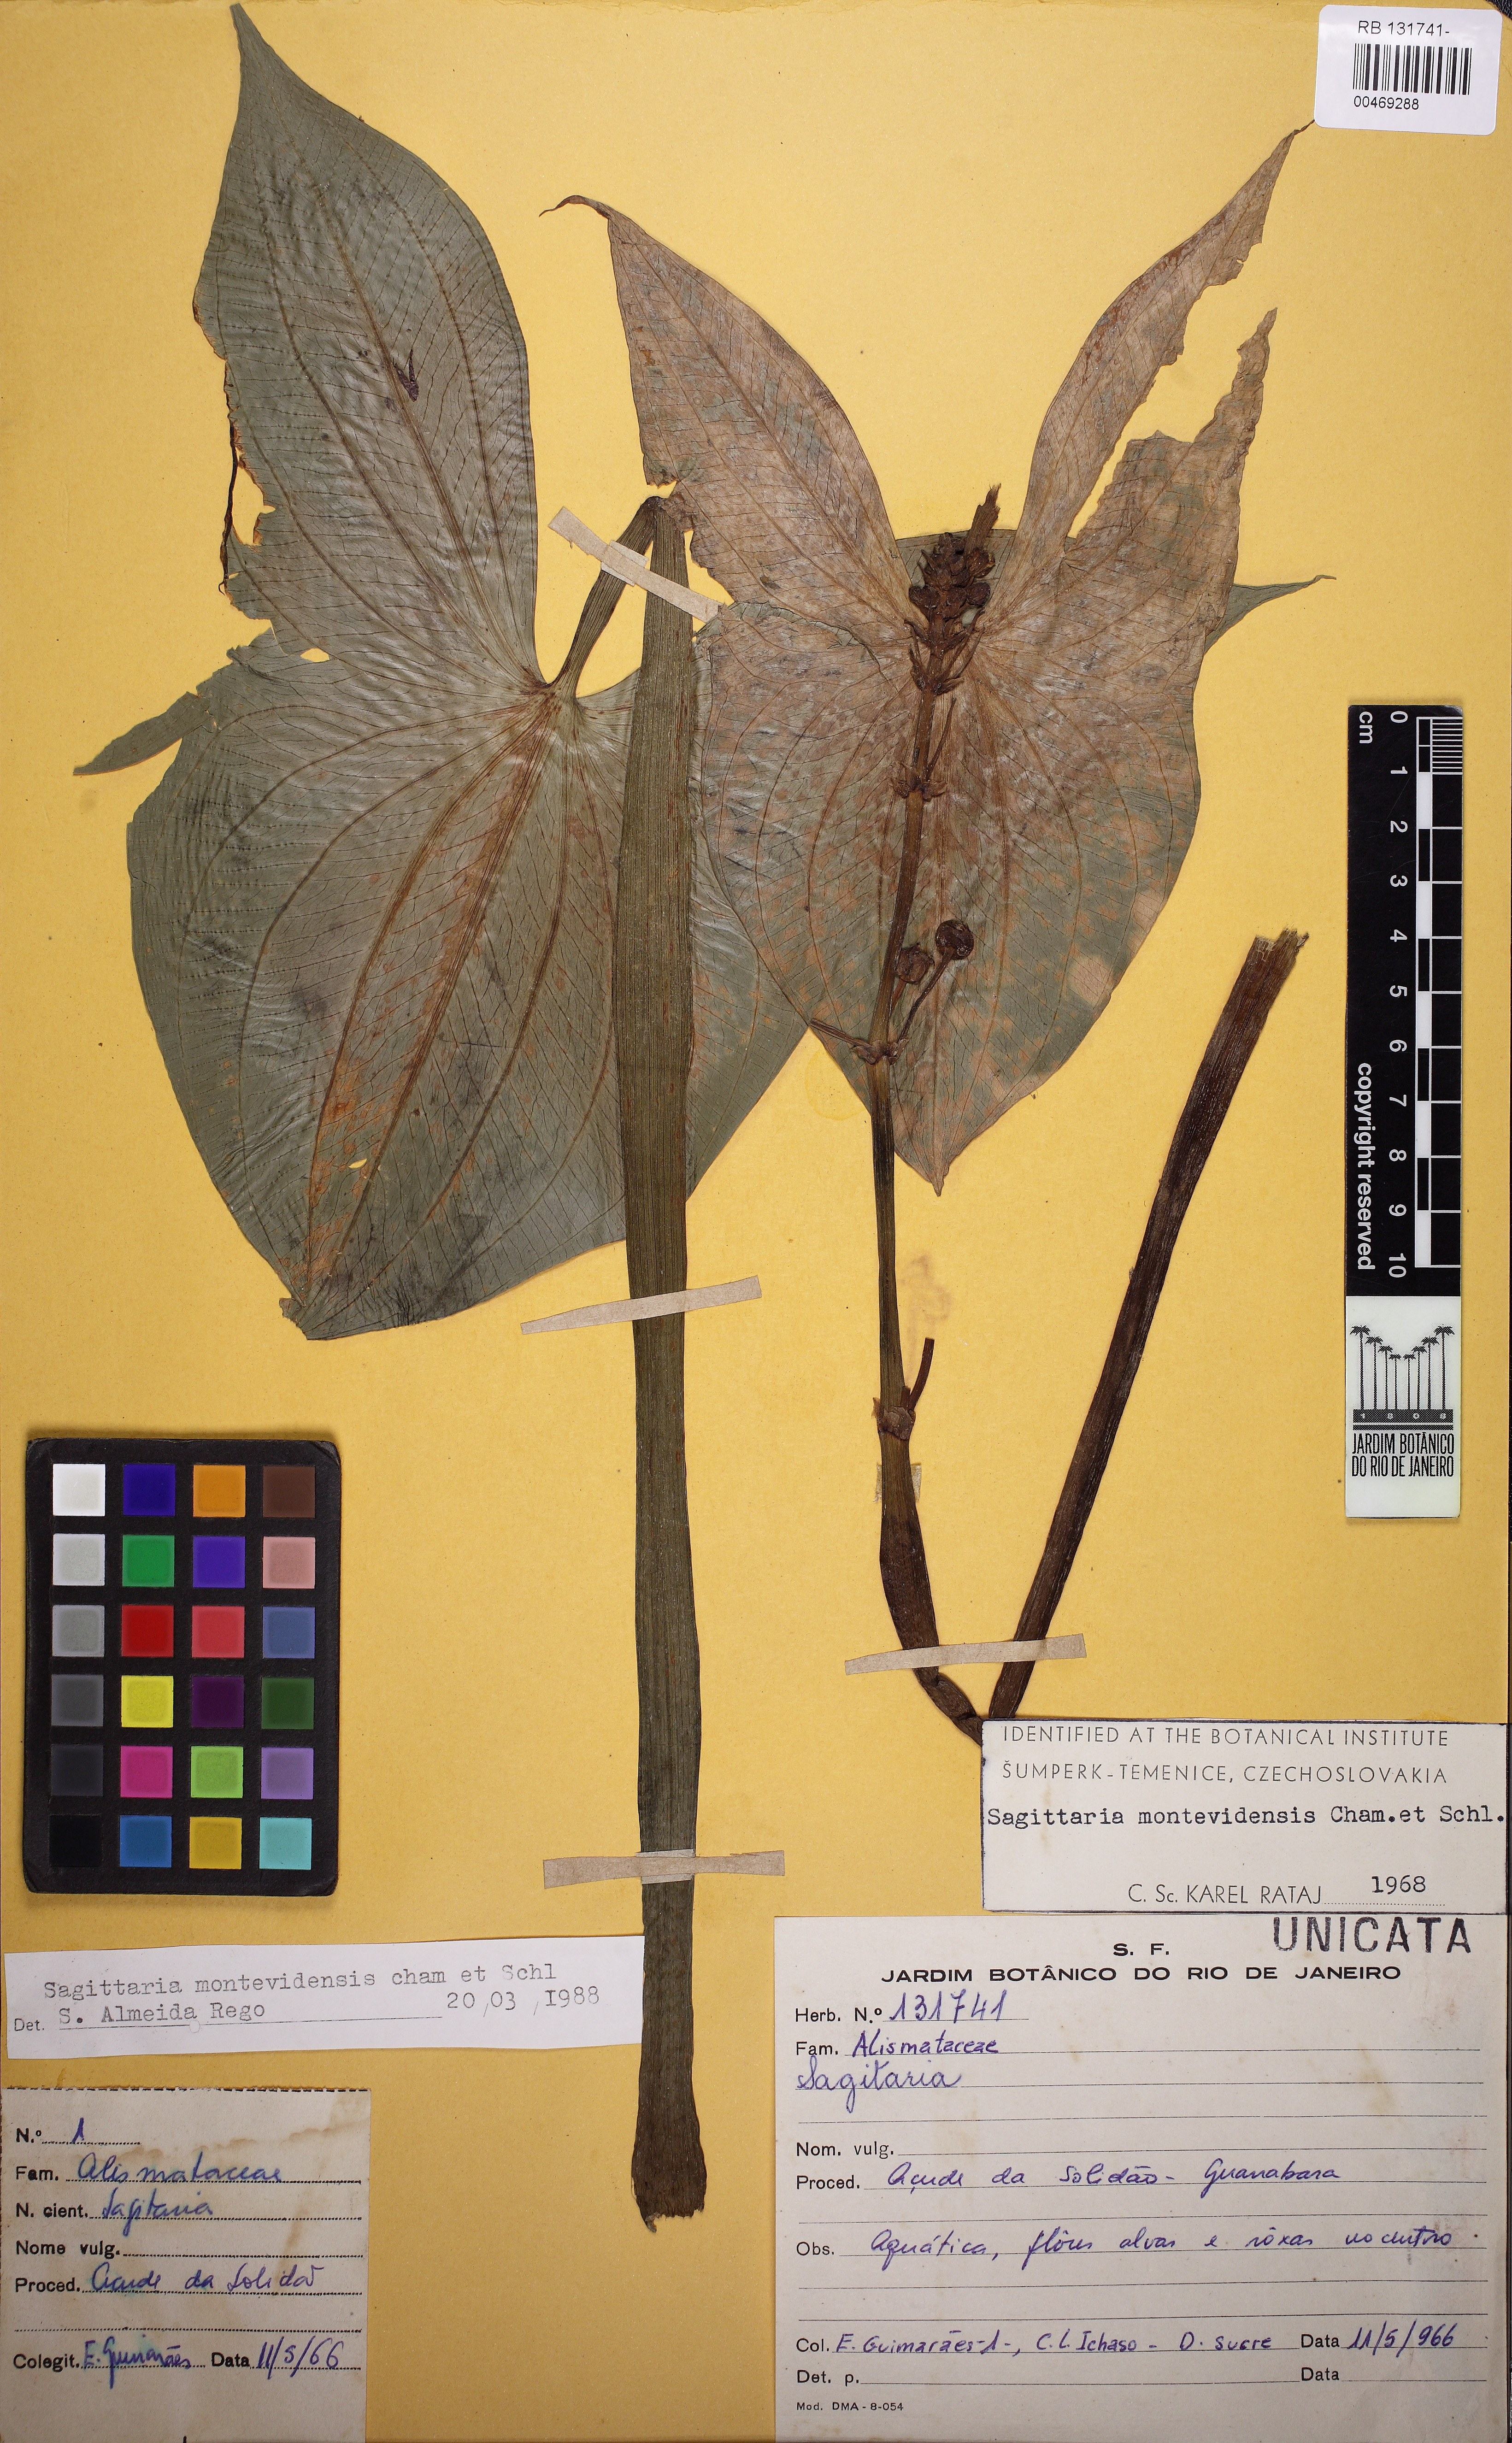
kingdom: Plantae
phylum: Tracheophyta
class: Liliopsida
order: Alismatales
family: Alismataceae
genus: Sagittaria
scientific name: Sagittaria montevidensis
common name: Giant arrowhead
